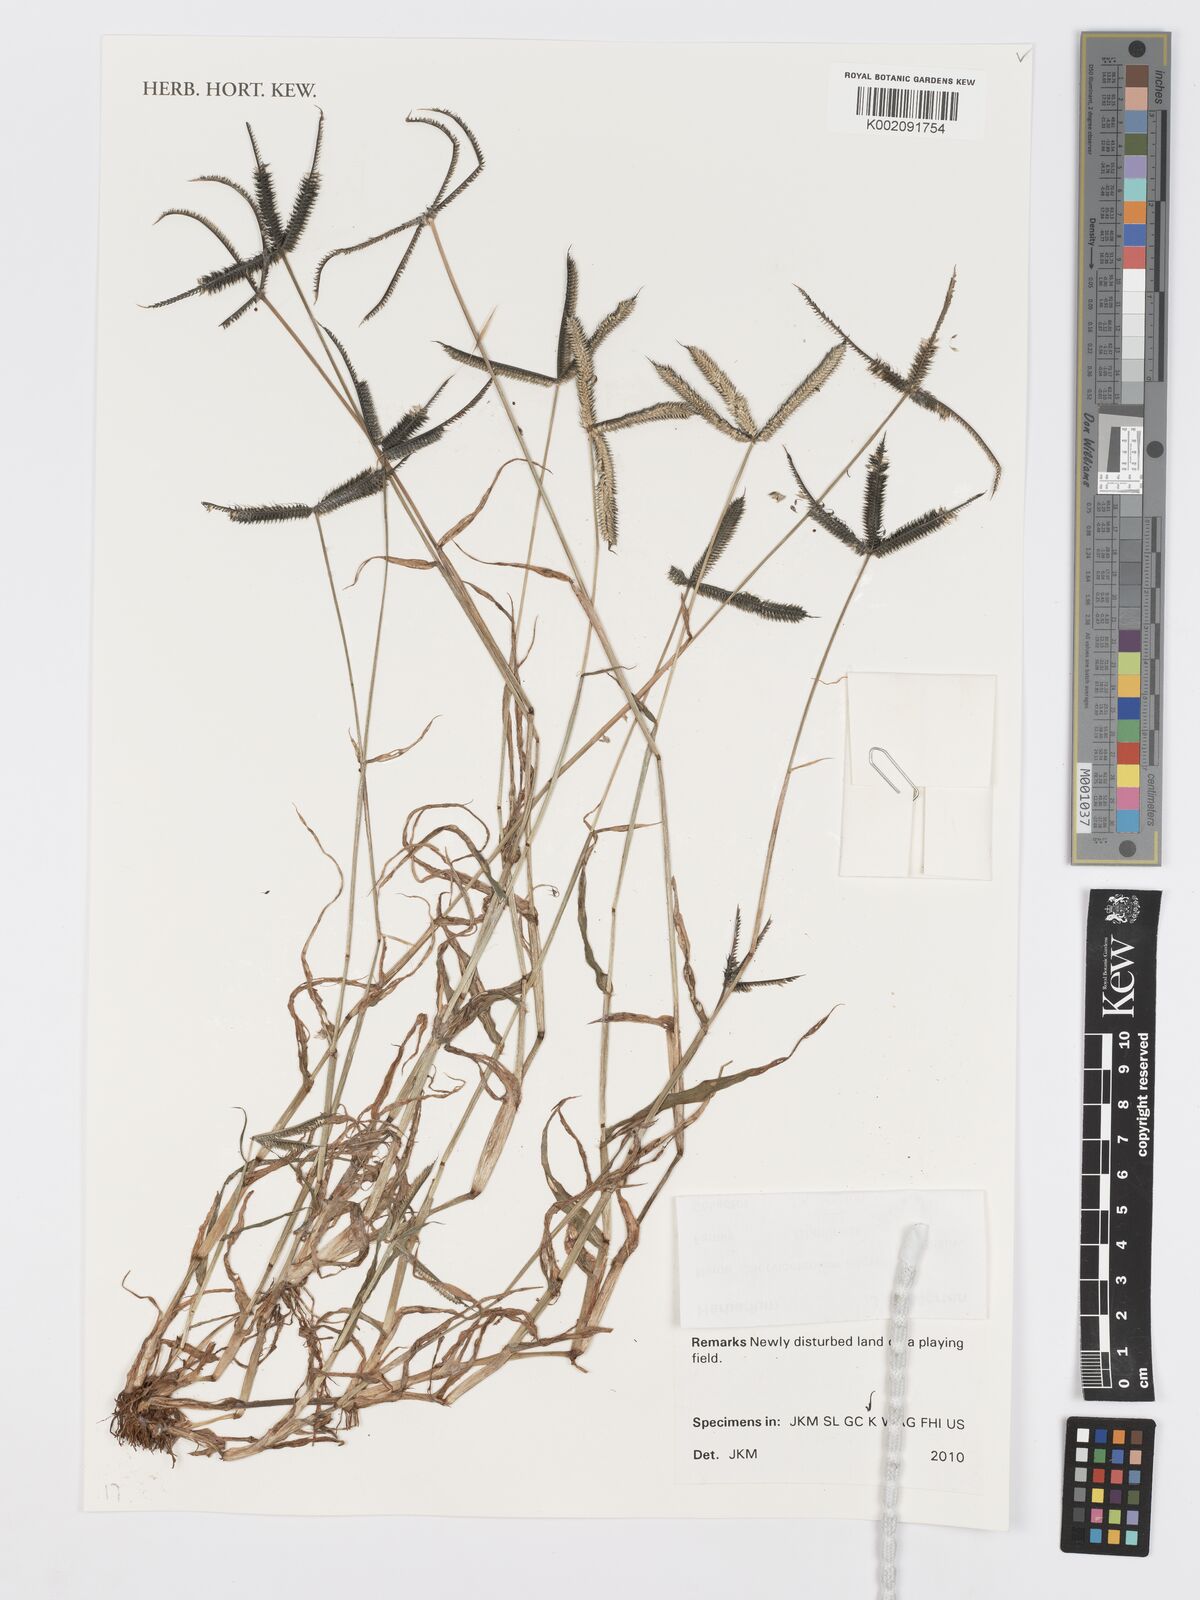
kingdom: Plantae
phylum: Tracheophyta
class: Liliopsida
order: Poales
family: Poaceae
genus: Dactyloctenium
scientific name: Dactyloctenium aegyptium
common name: Egyptian grass
